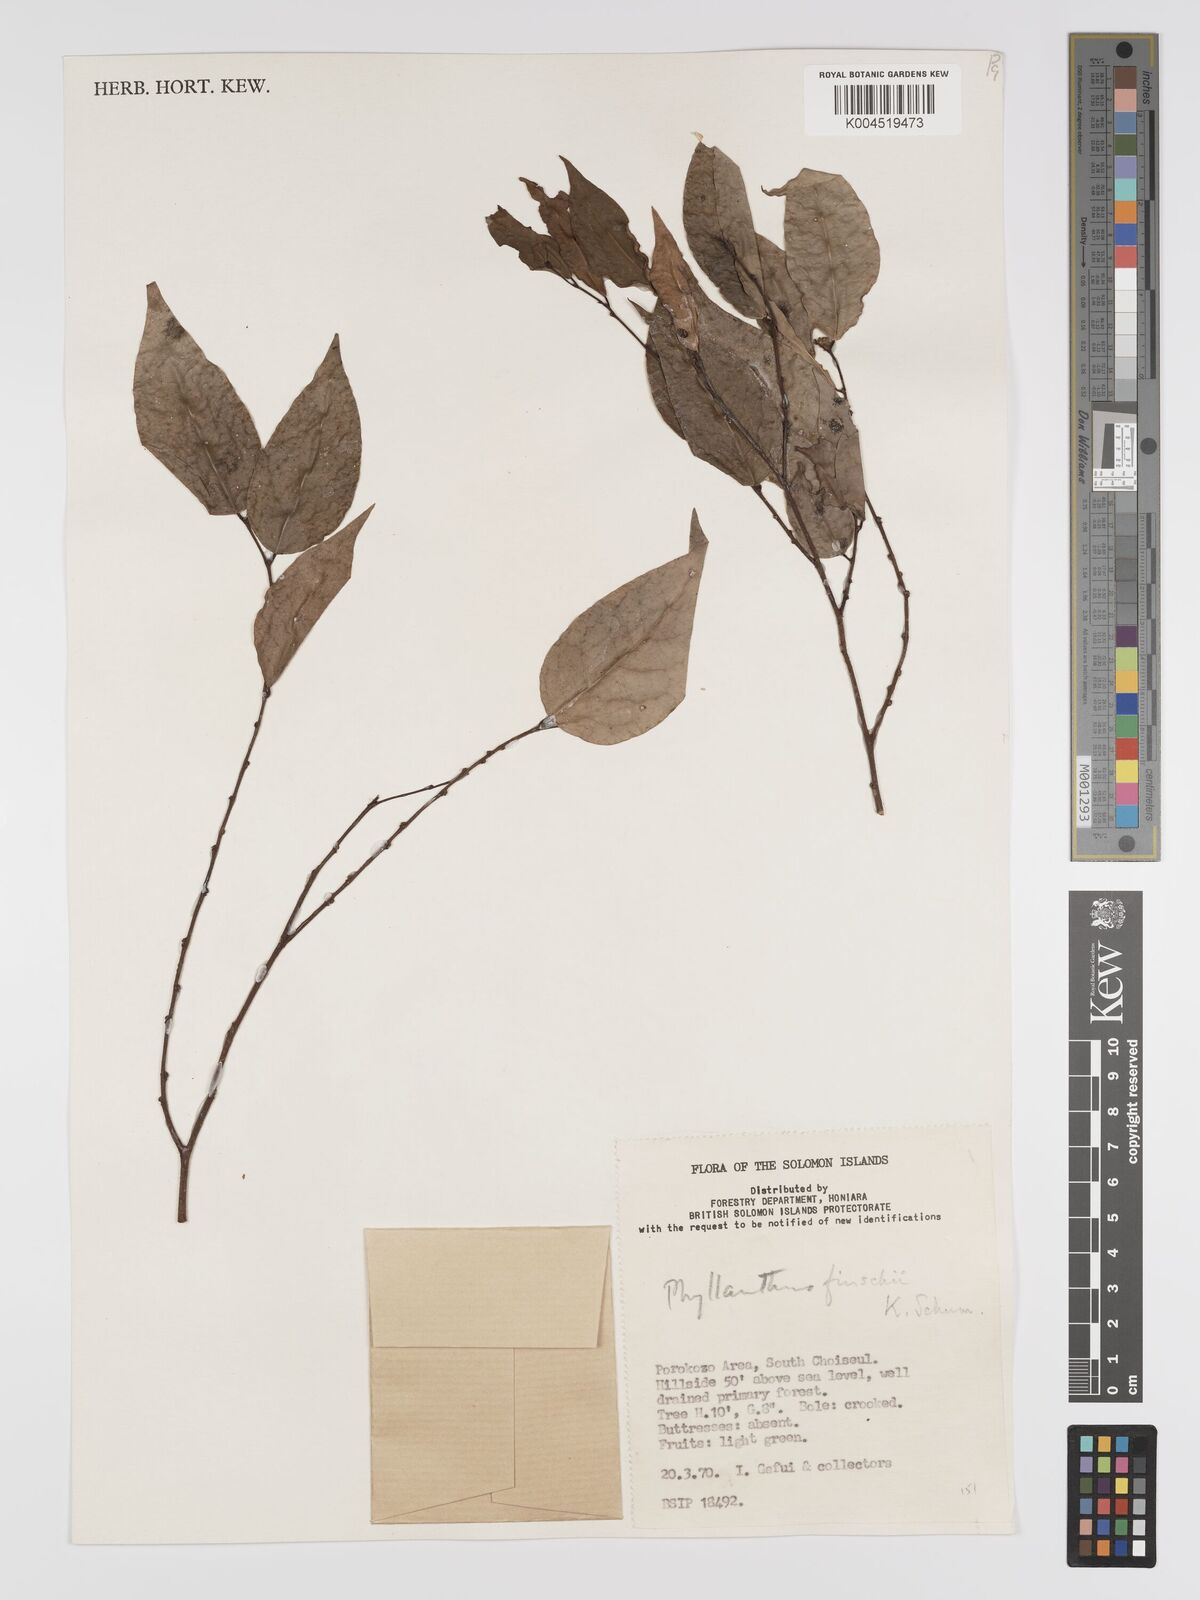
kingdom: Plantae
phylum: Tracheophyta
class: Magnoliopsida
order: Malpighiales
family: Phyllanthaceae
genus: Phyllanthus
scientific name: Phyllanthus finschii
